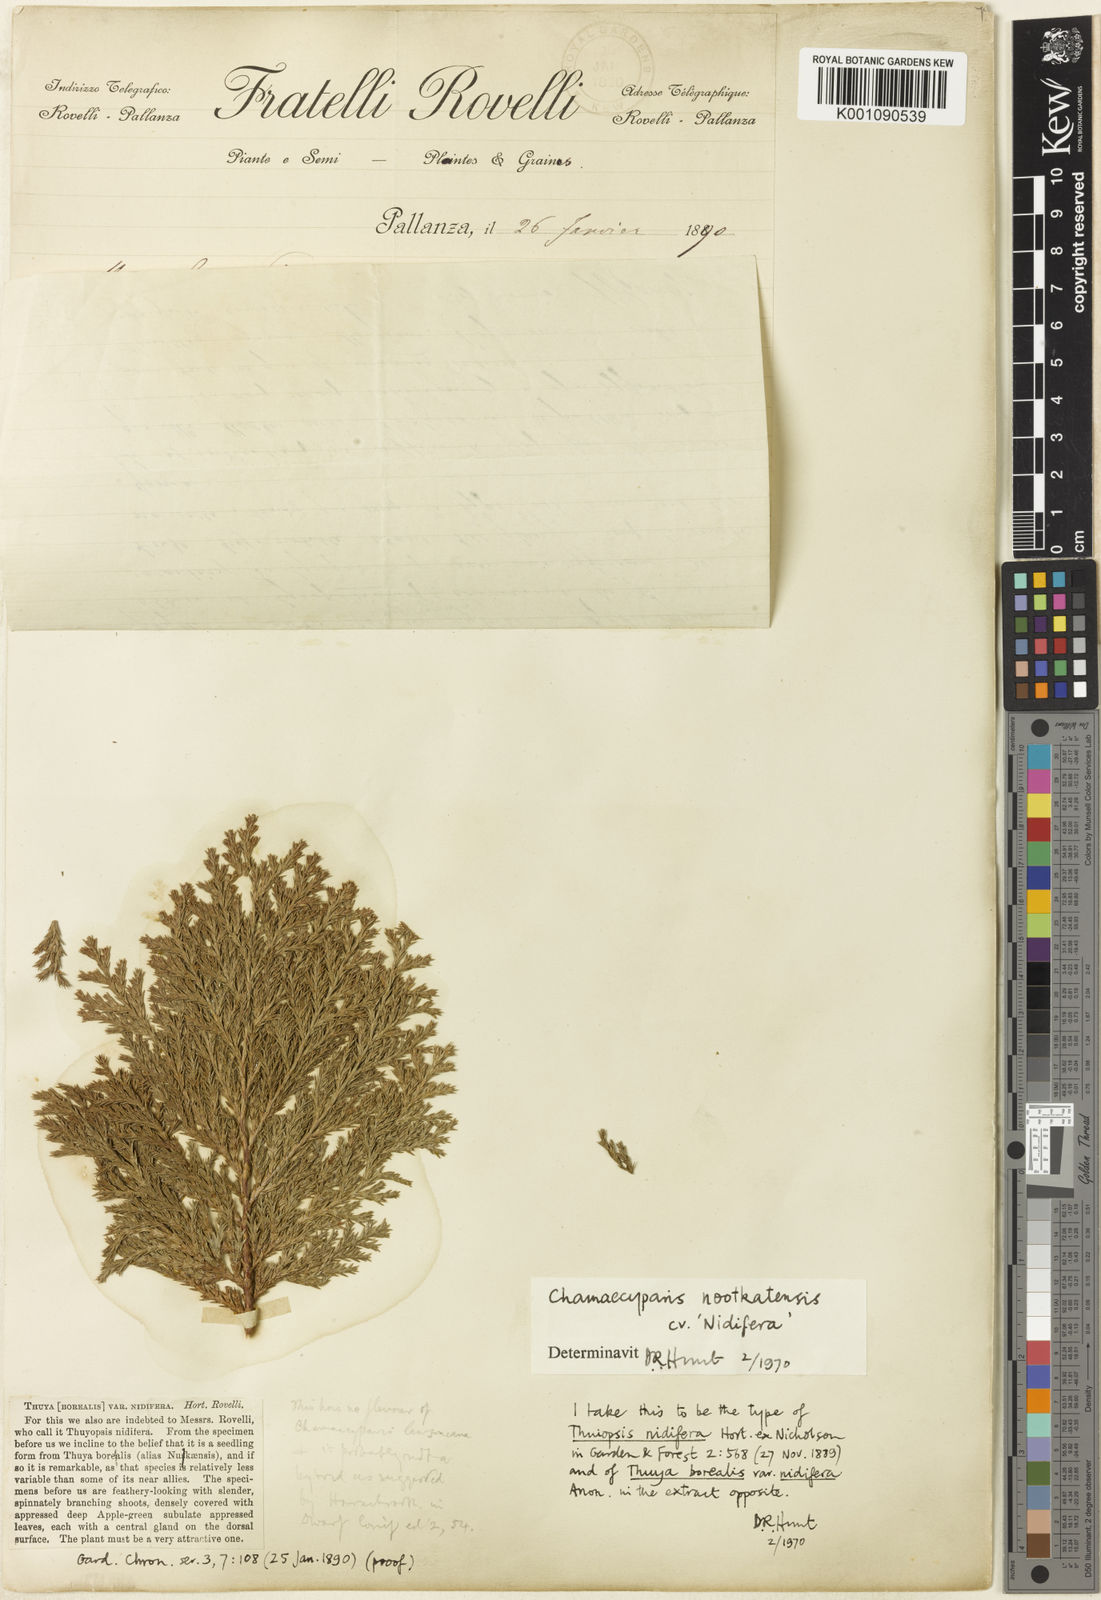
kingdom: Plantae
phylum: Tracheophyta
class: Pinopsida
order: Pinales
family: Cupressaceae
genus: Xanthocyparis
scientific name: Xanthocyparis nootkatensis
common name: Nootka cypress
